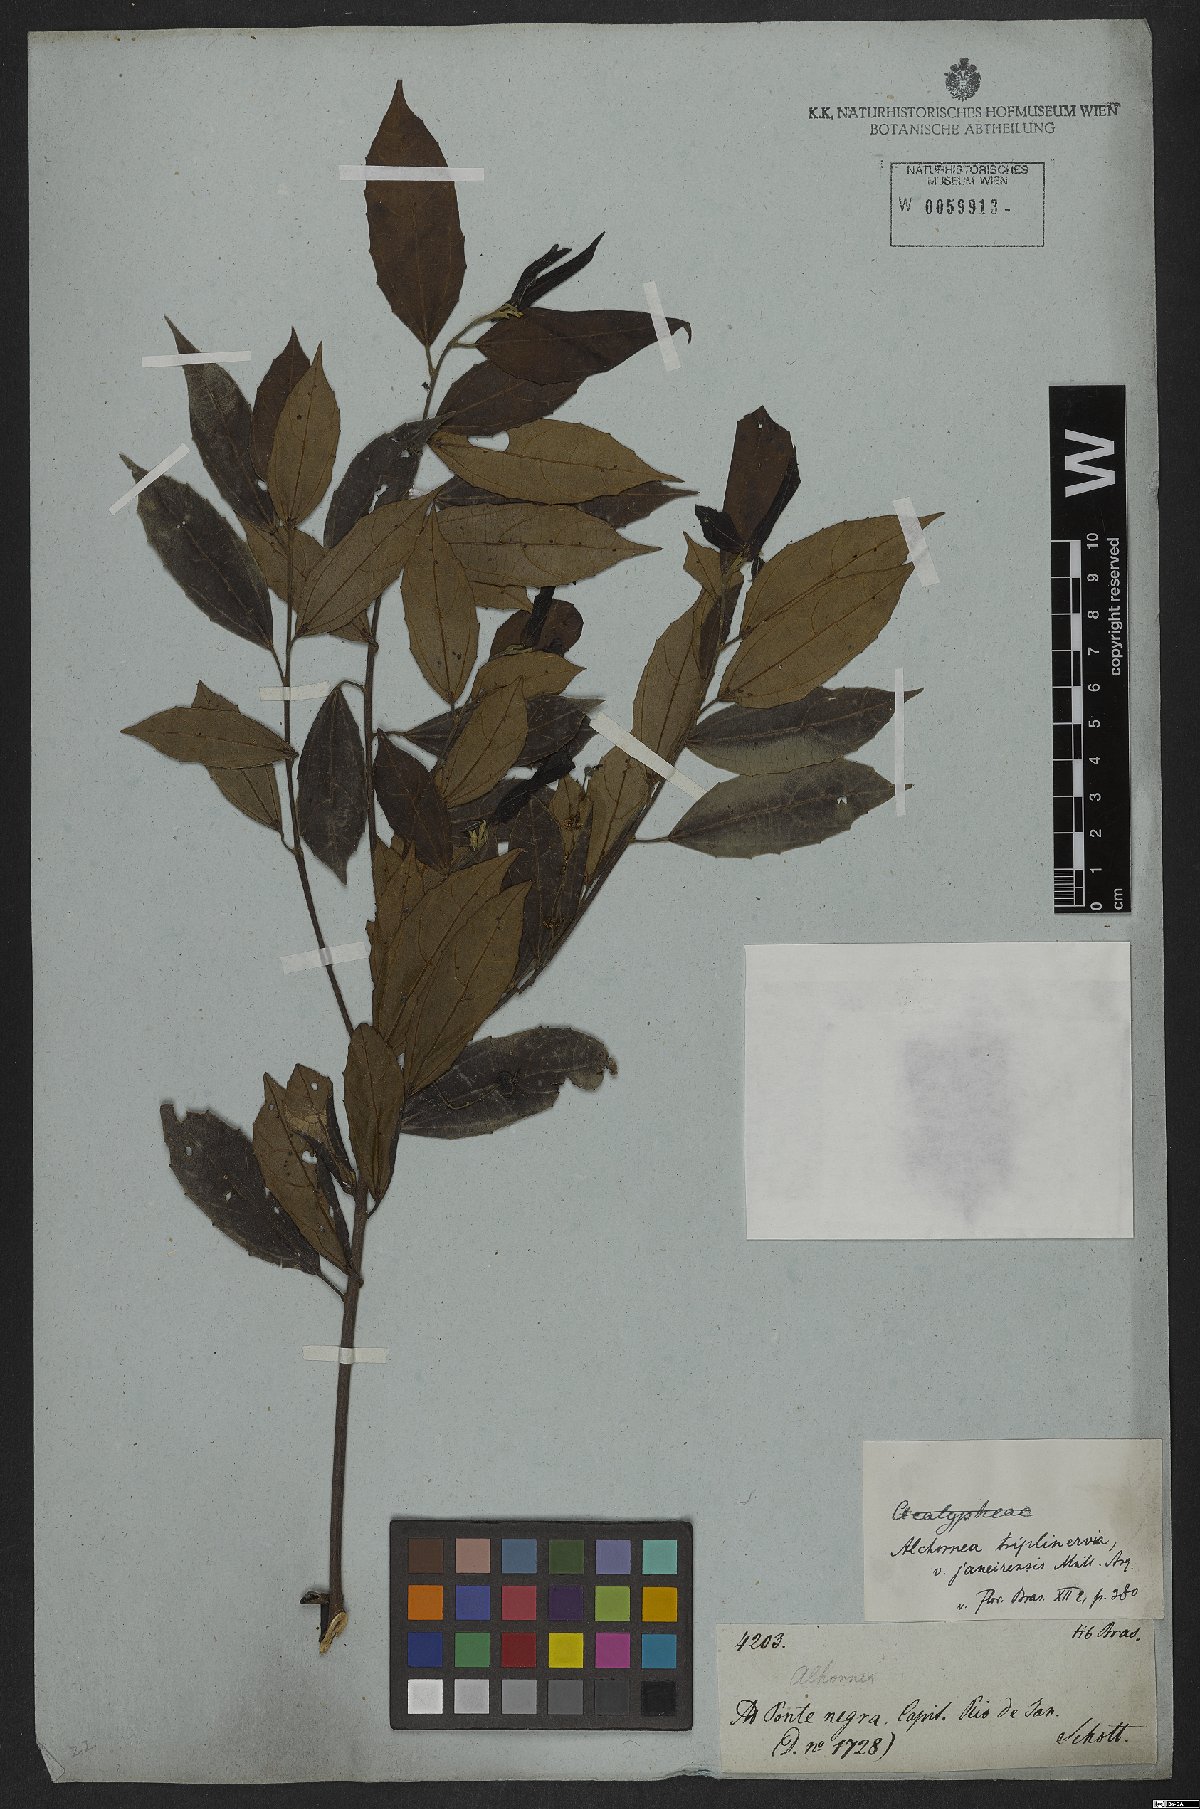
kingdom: Plantae
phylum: Tracheophyta
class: Magnoliopsida
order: Malpighiales
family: Euphorbiaceae
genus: Alchornea
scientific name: Alchornea triplinervia
